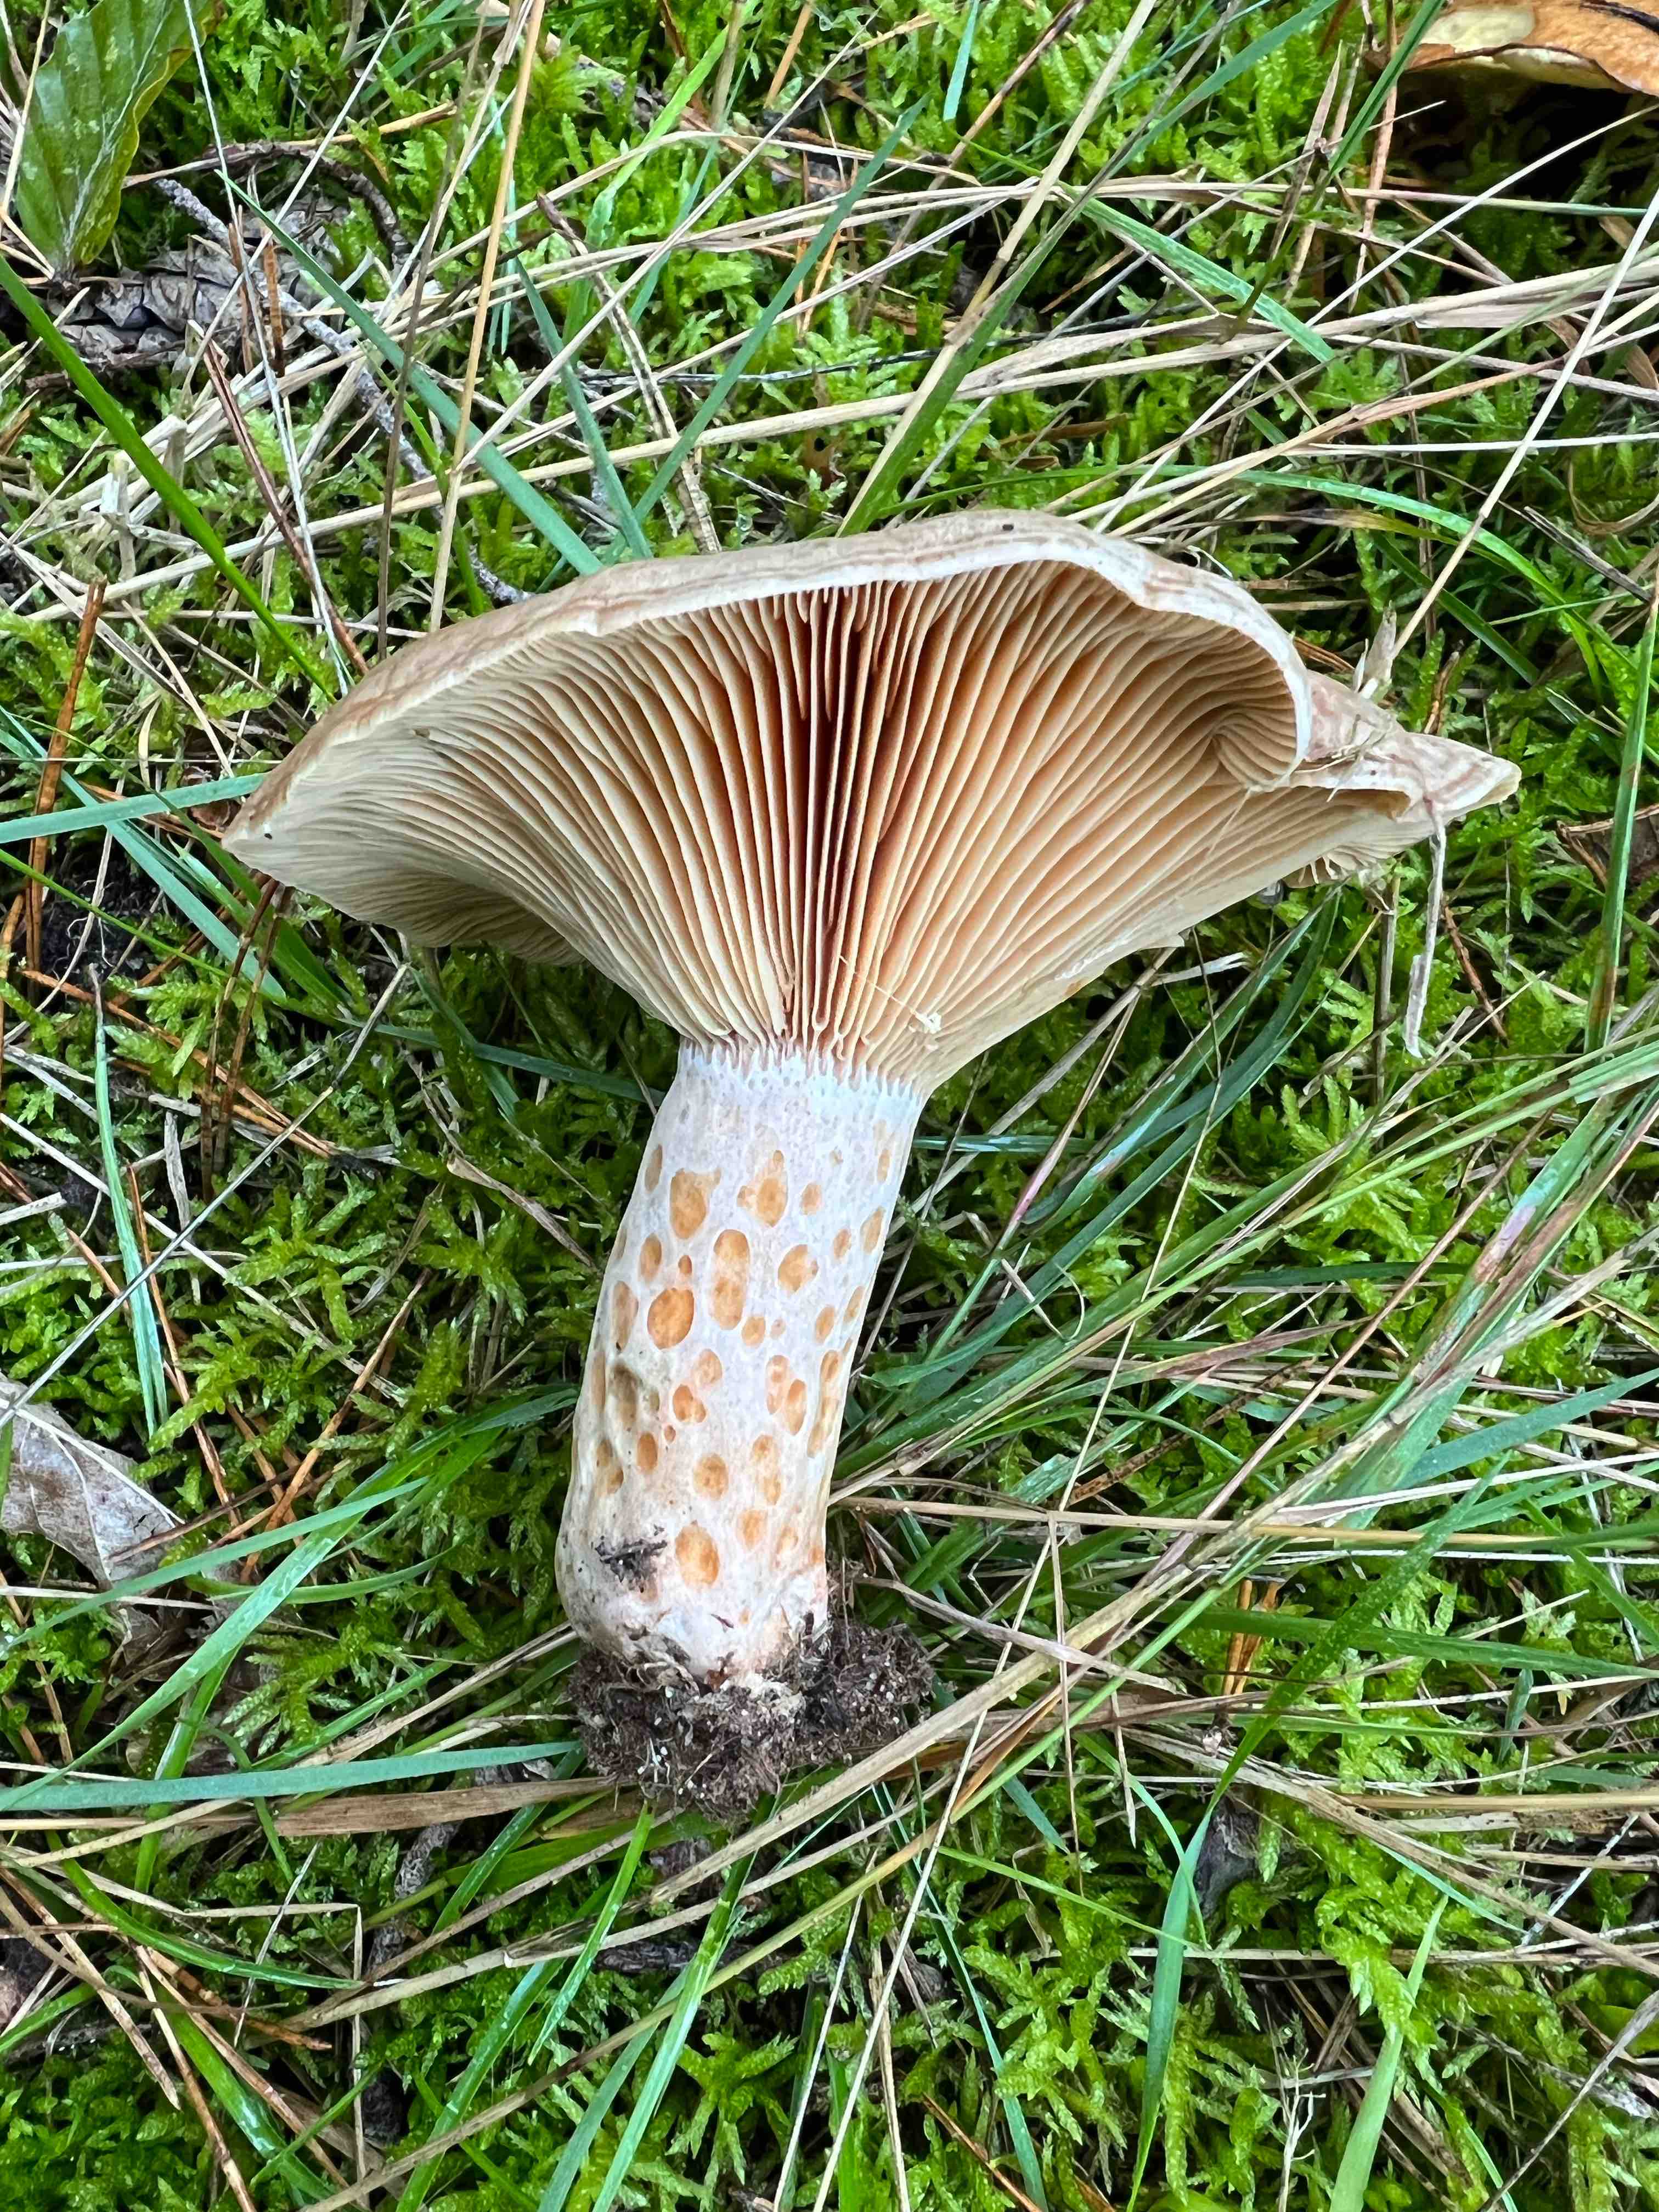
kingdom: Fungi
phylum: Basidiomycota
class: Agaricomycetes
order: Russulales
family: Russulaceae
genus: Lactarius
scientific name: Lactarius deliciosus
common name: velsmagende mælkehat
